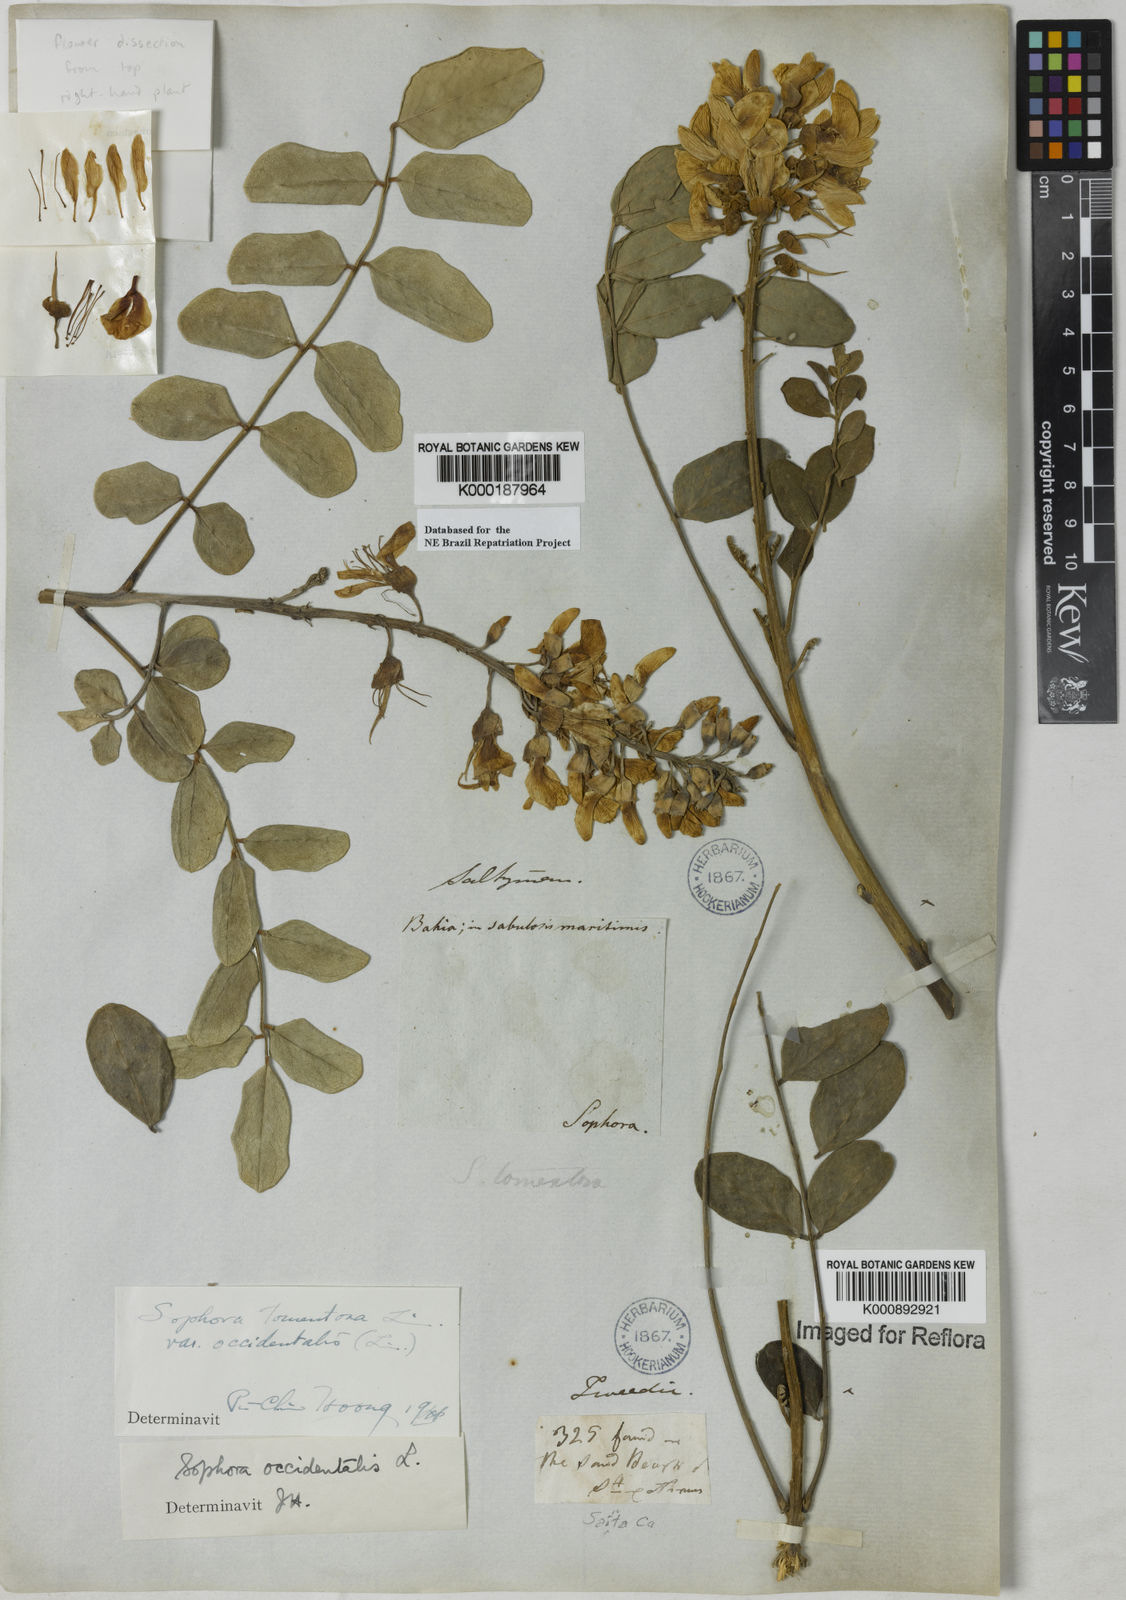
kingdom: Plantae
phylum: Tracheophyta
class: Magnoliopsida
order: Fabales
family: Fabaceae
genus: Sophora
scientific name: Sophora
